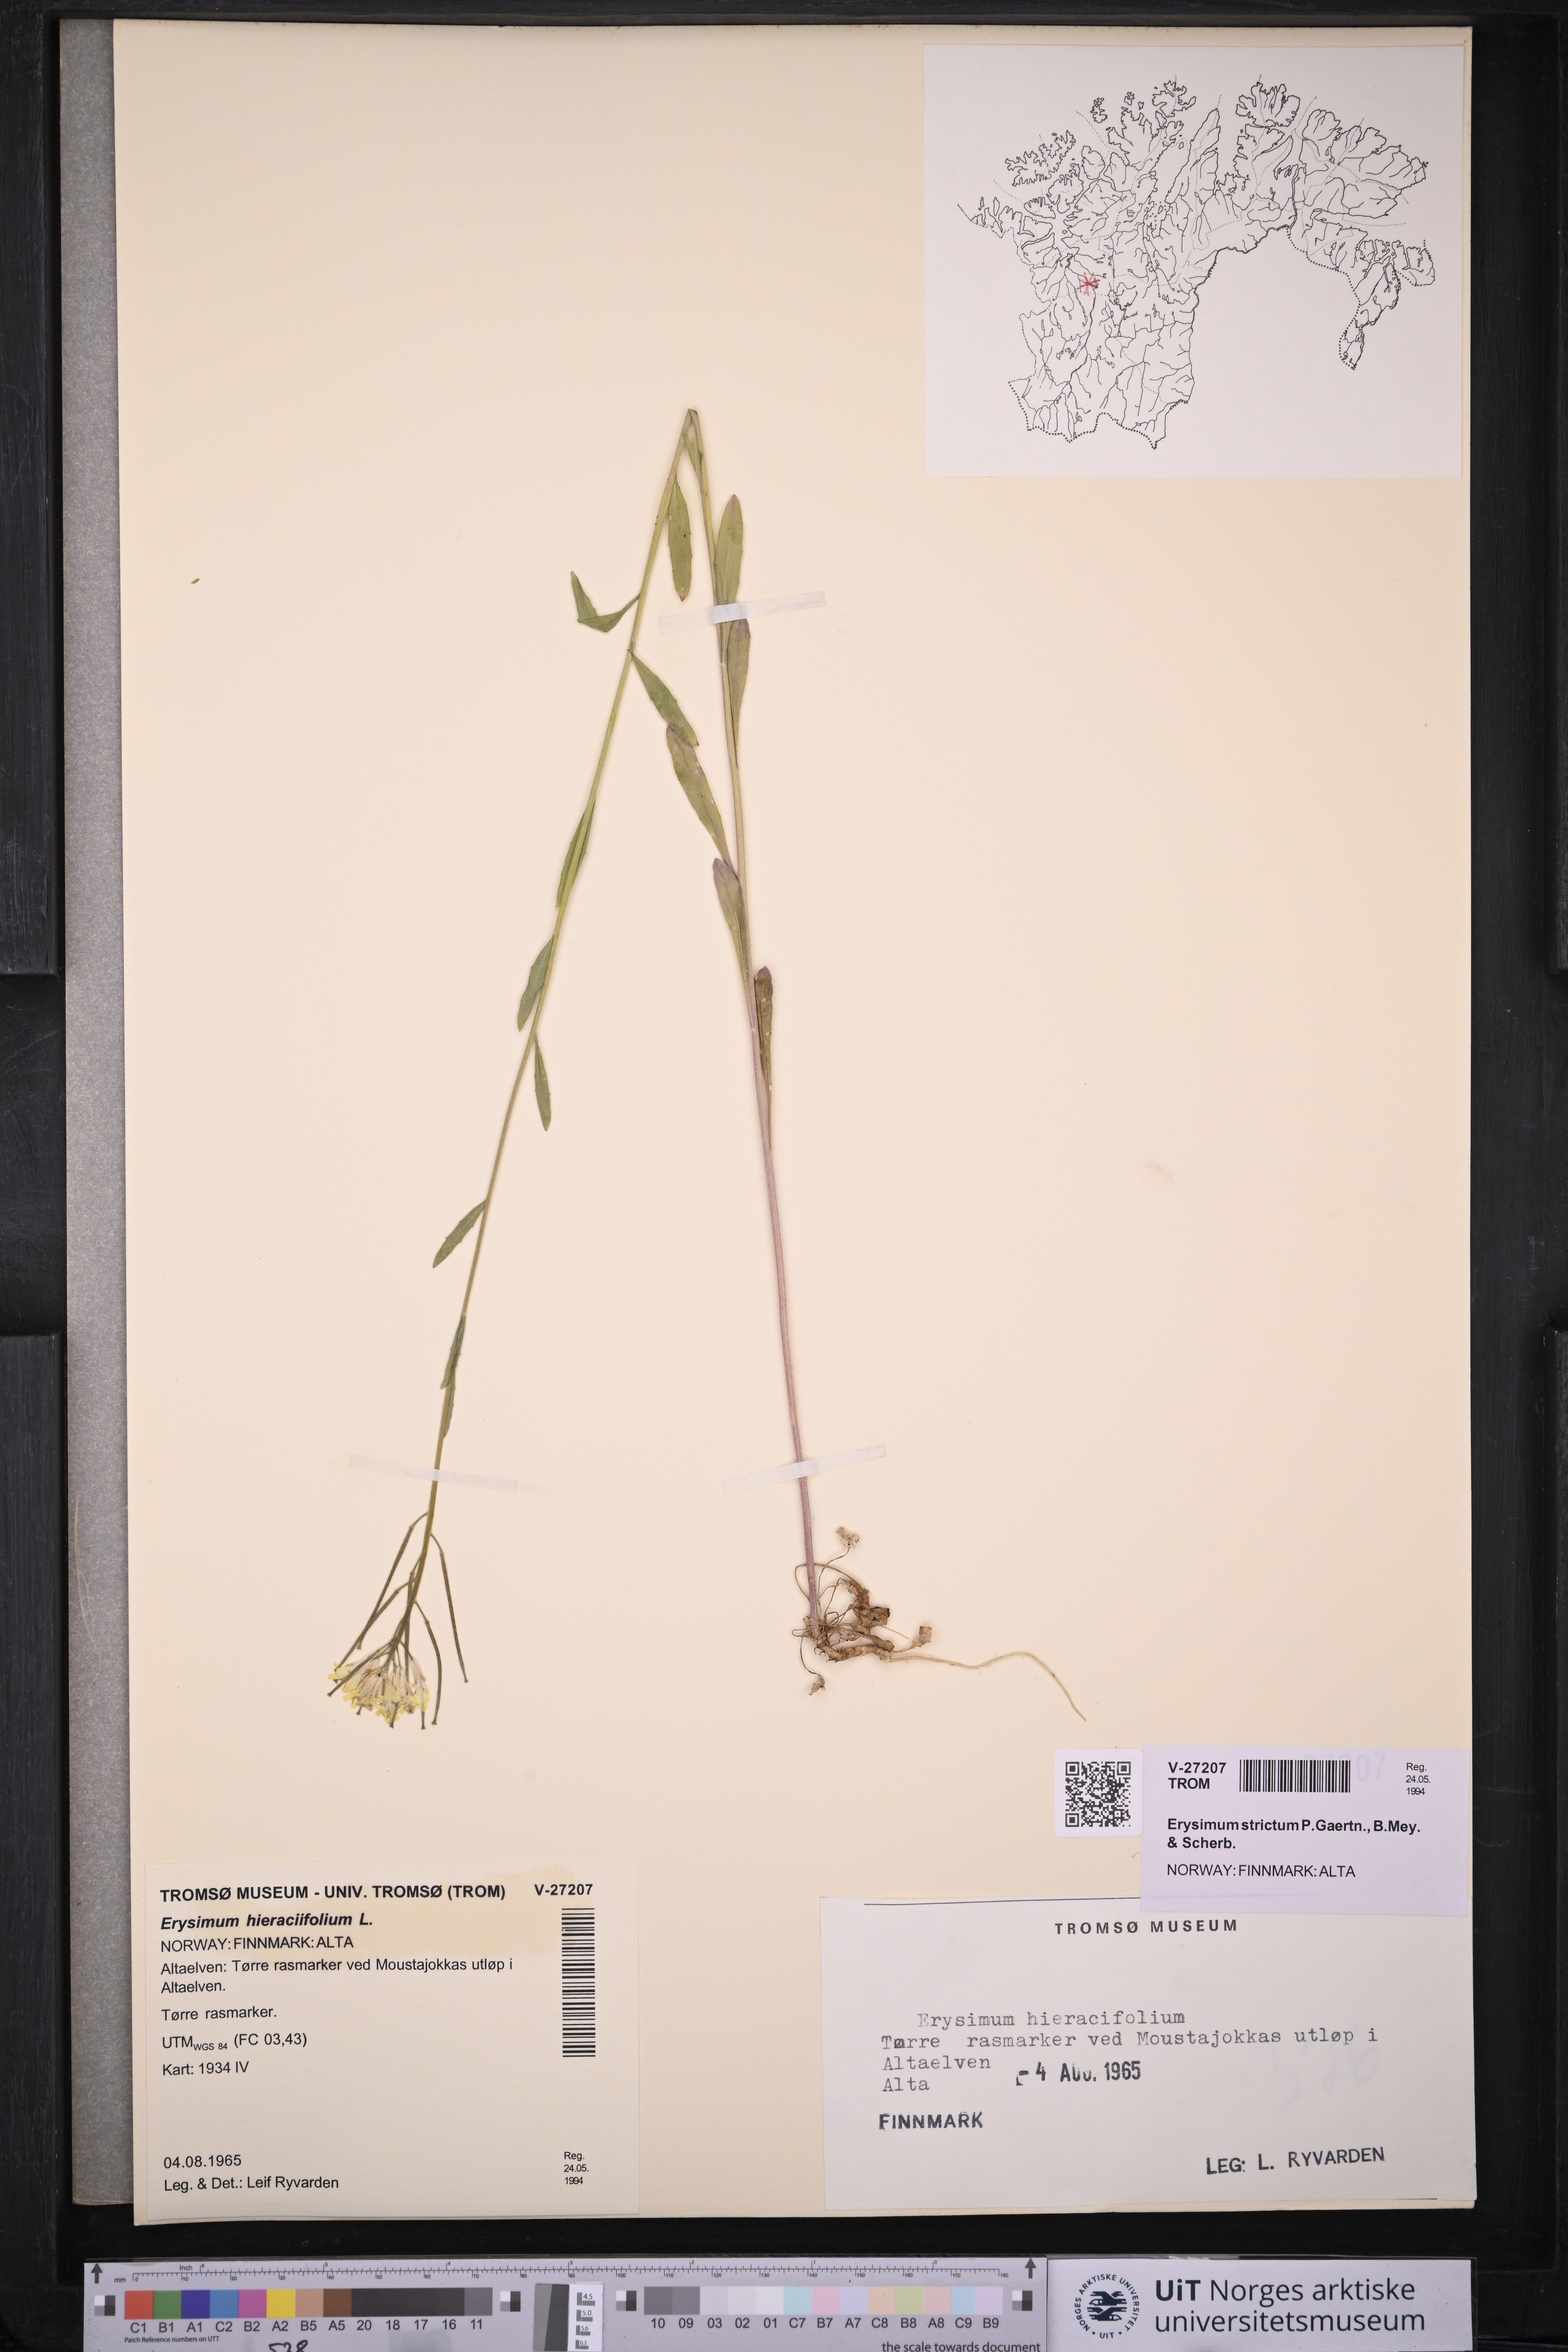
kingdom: Plantae
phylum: Tracheophyta
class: Magnoliopsida
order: Brassicales
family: Brassicaceae
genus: Erysimum
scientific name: Erysimum virgatum
